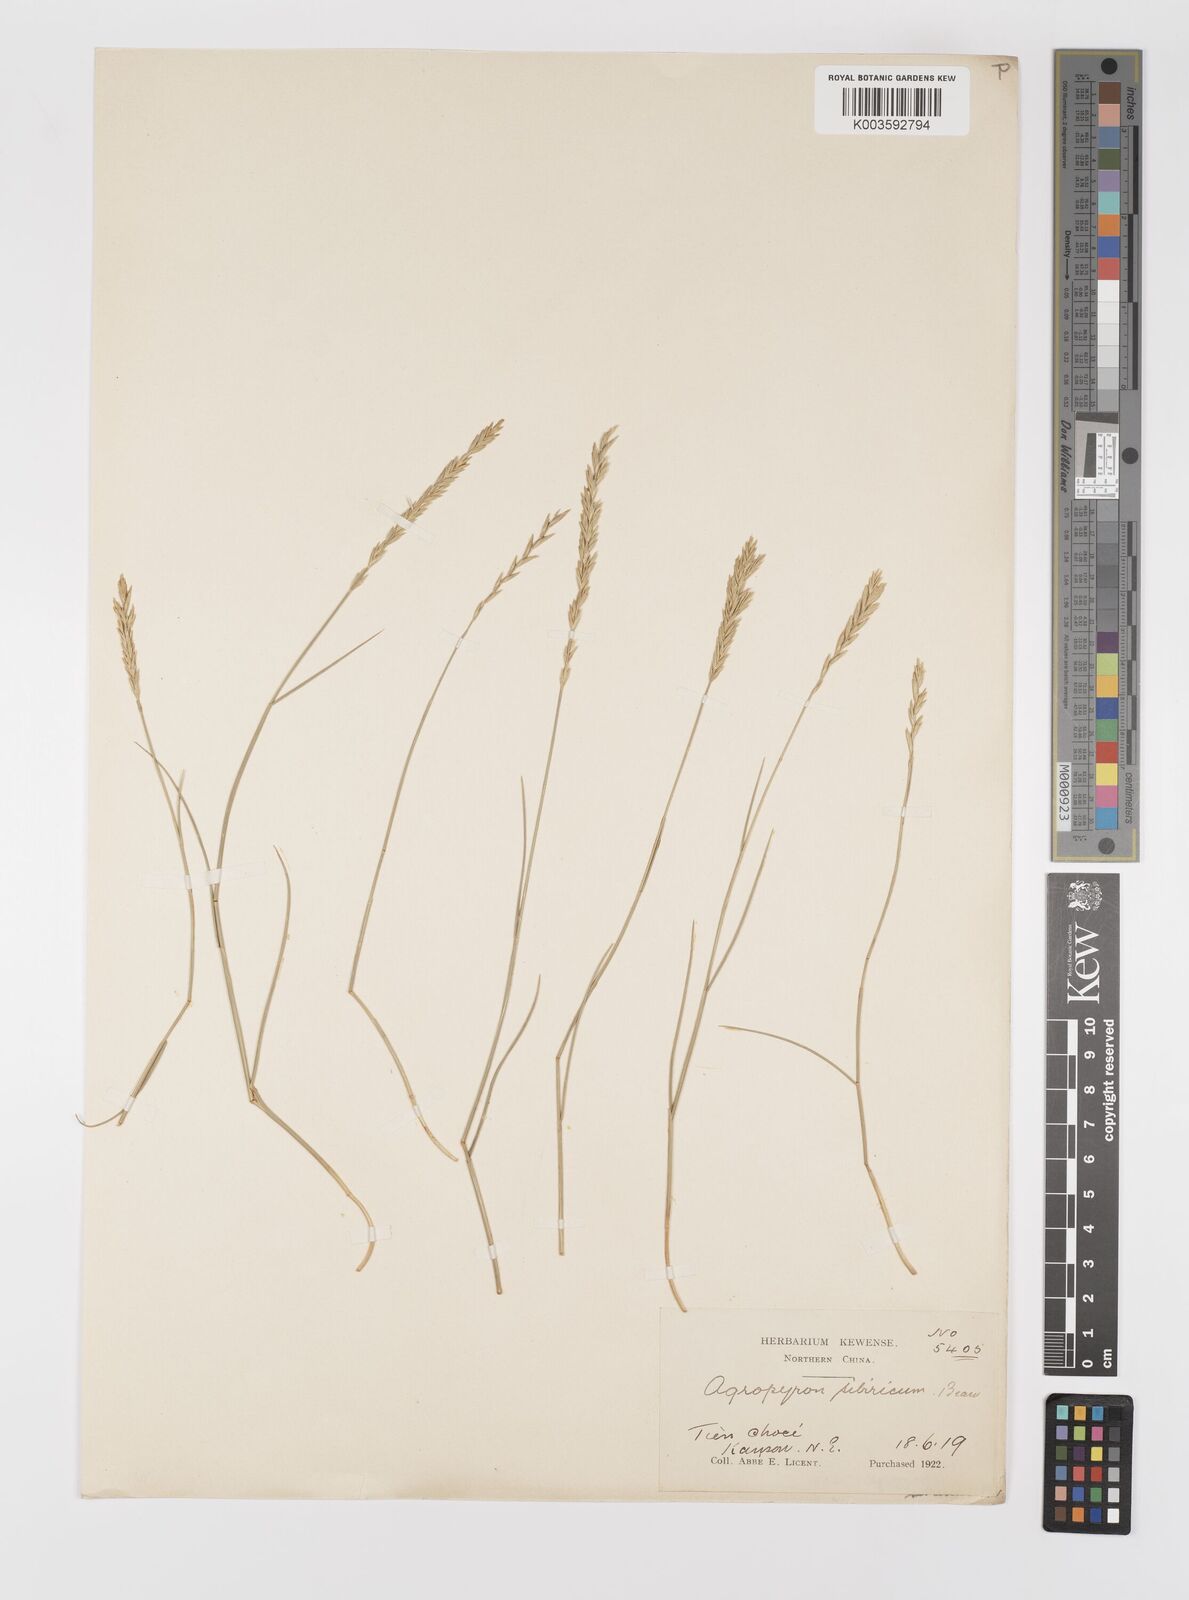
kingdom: Plantae
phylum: Tracheophyta
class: Liliopsida
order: Poales
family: Poaceae
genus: Agropyron
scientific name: Agropyron fragile
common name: Siberian wheatgrass
